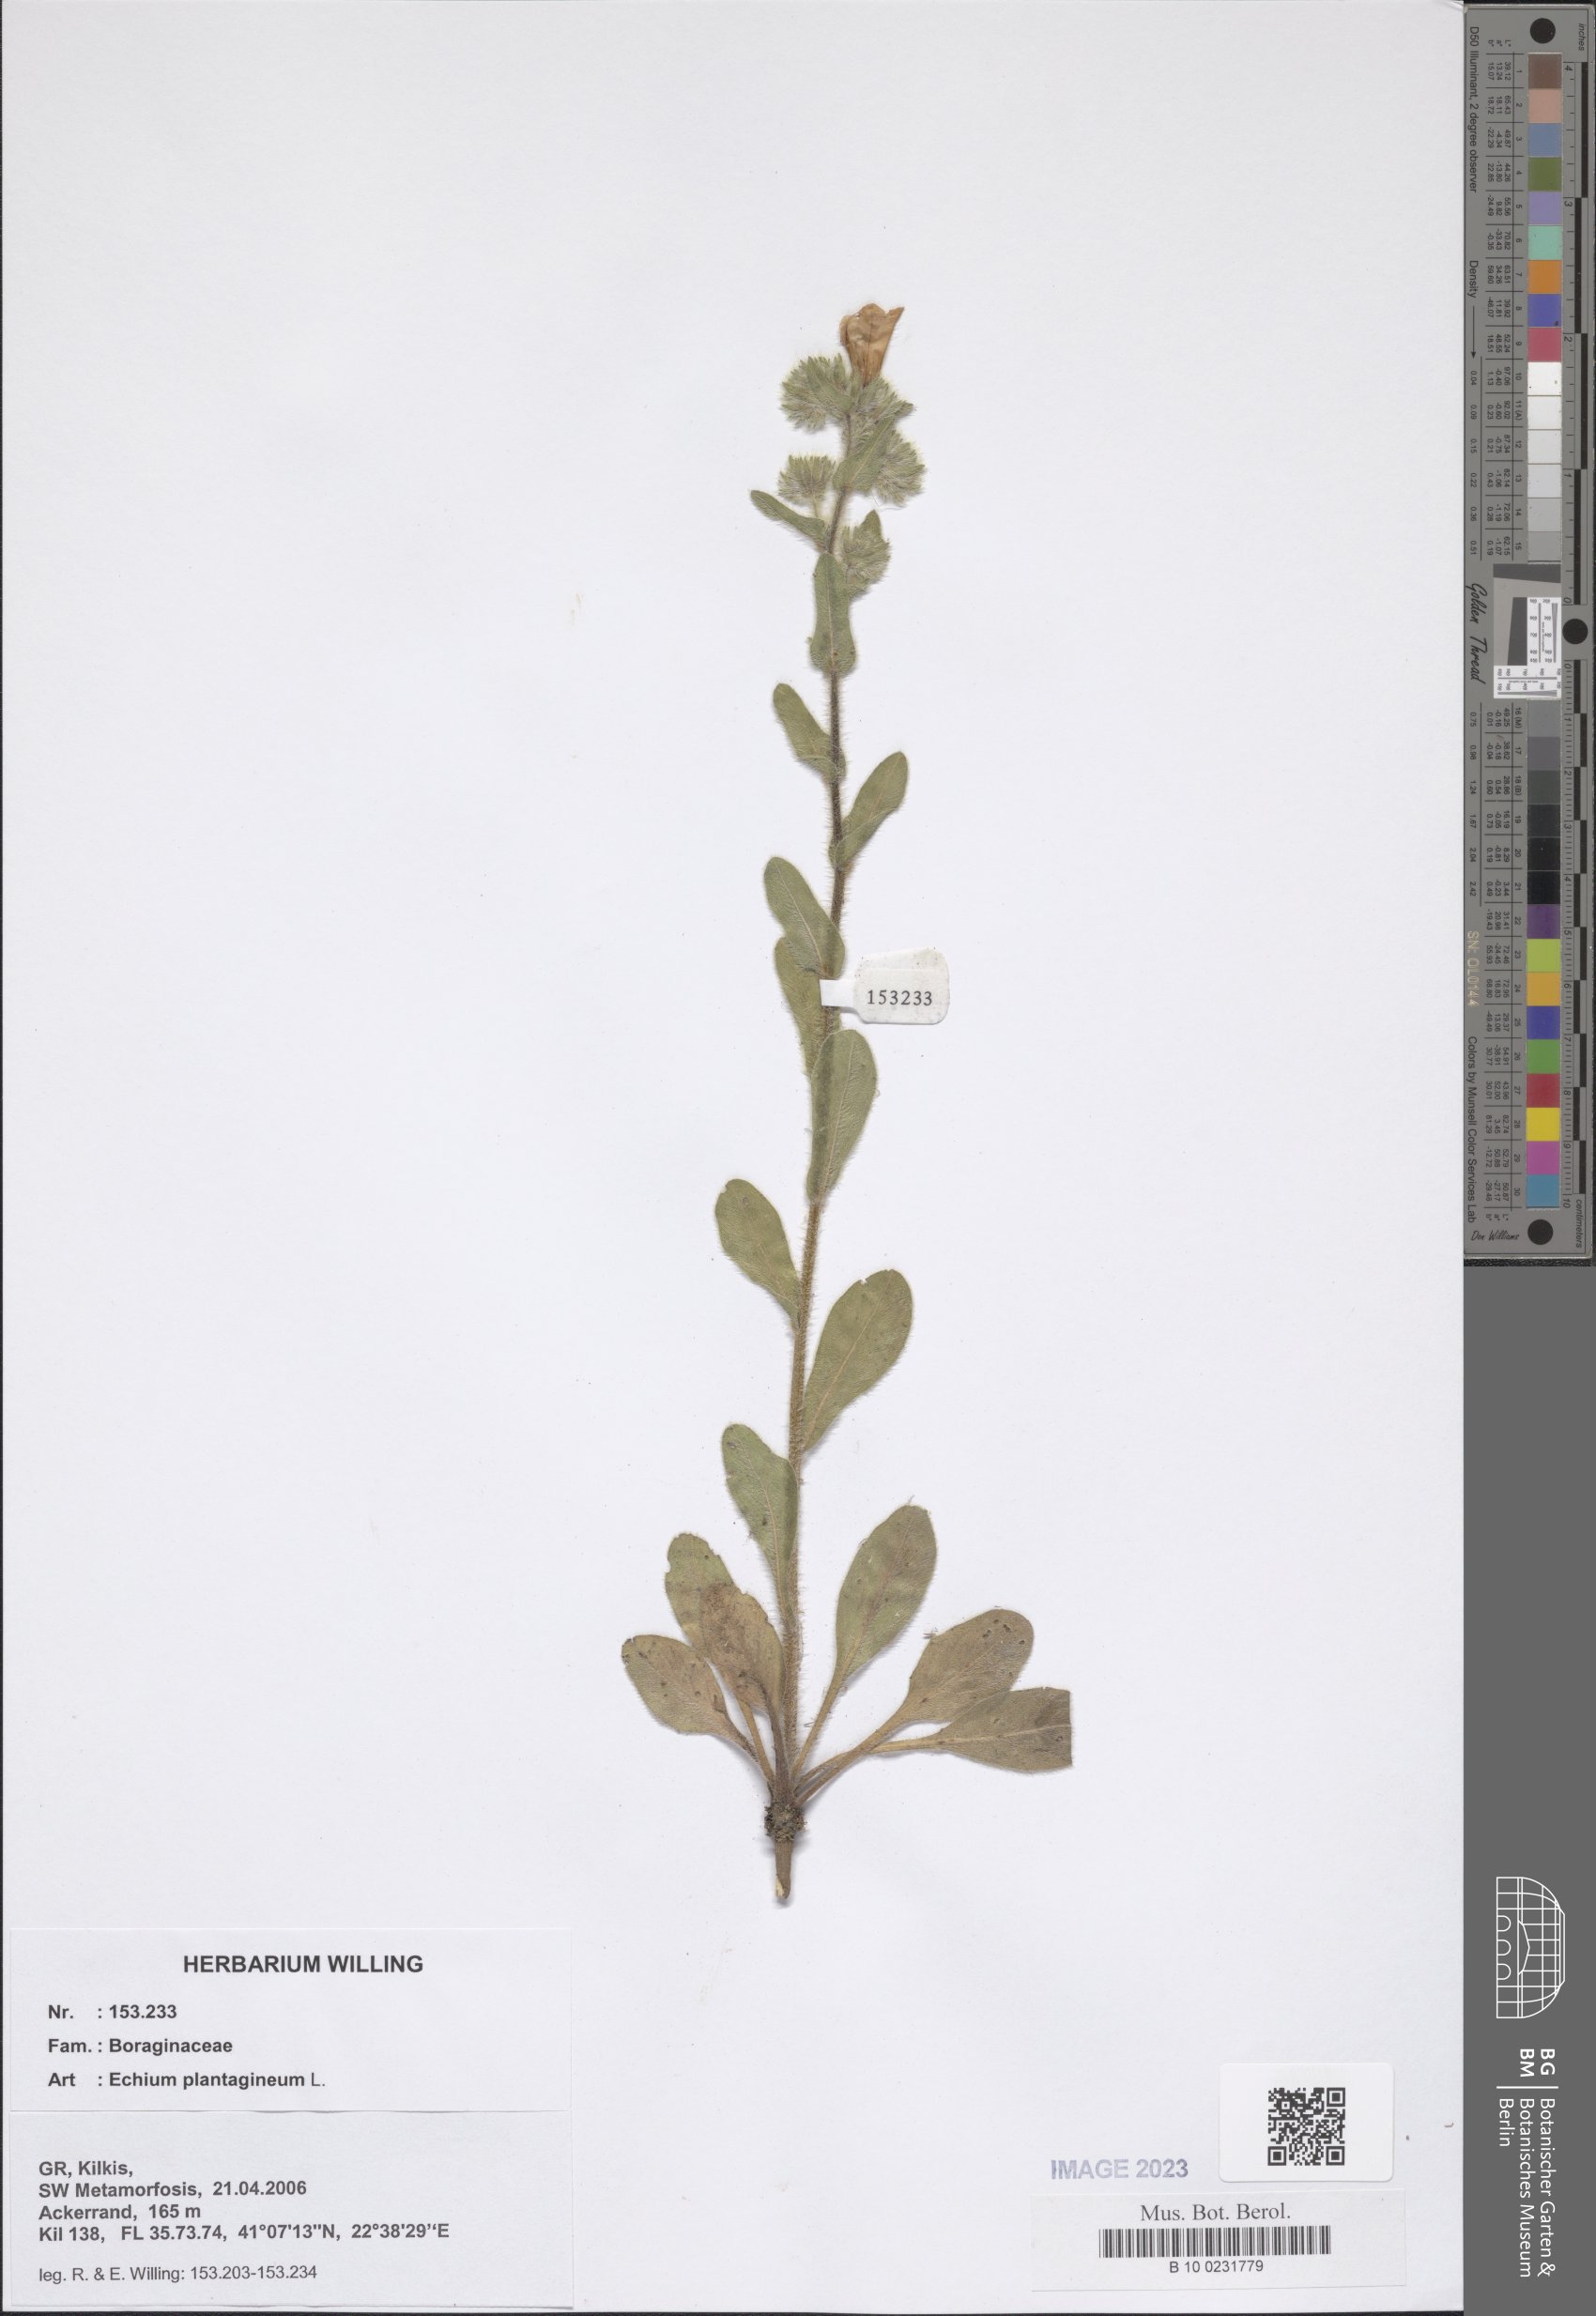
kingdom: Plantae
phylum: Tracheophyta
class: Magnoliopsida
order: Boraginales
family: Boraginaceae
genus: Echium
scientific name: Echium plantagineum
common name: Purple viper's-bugloss
